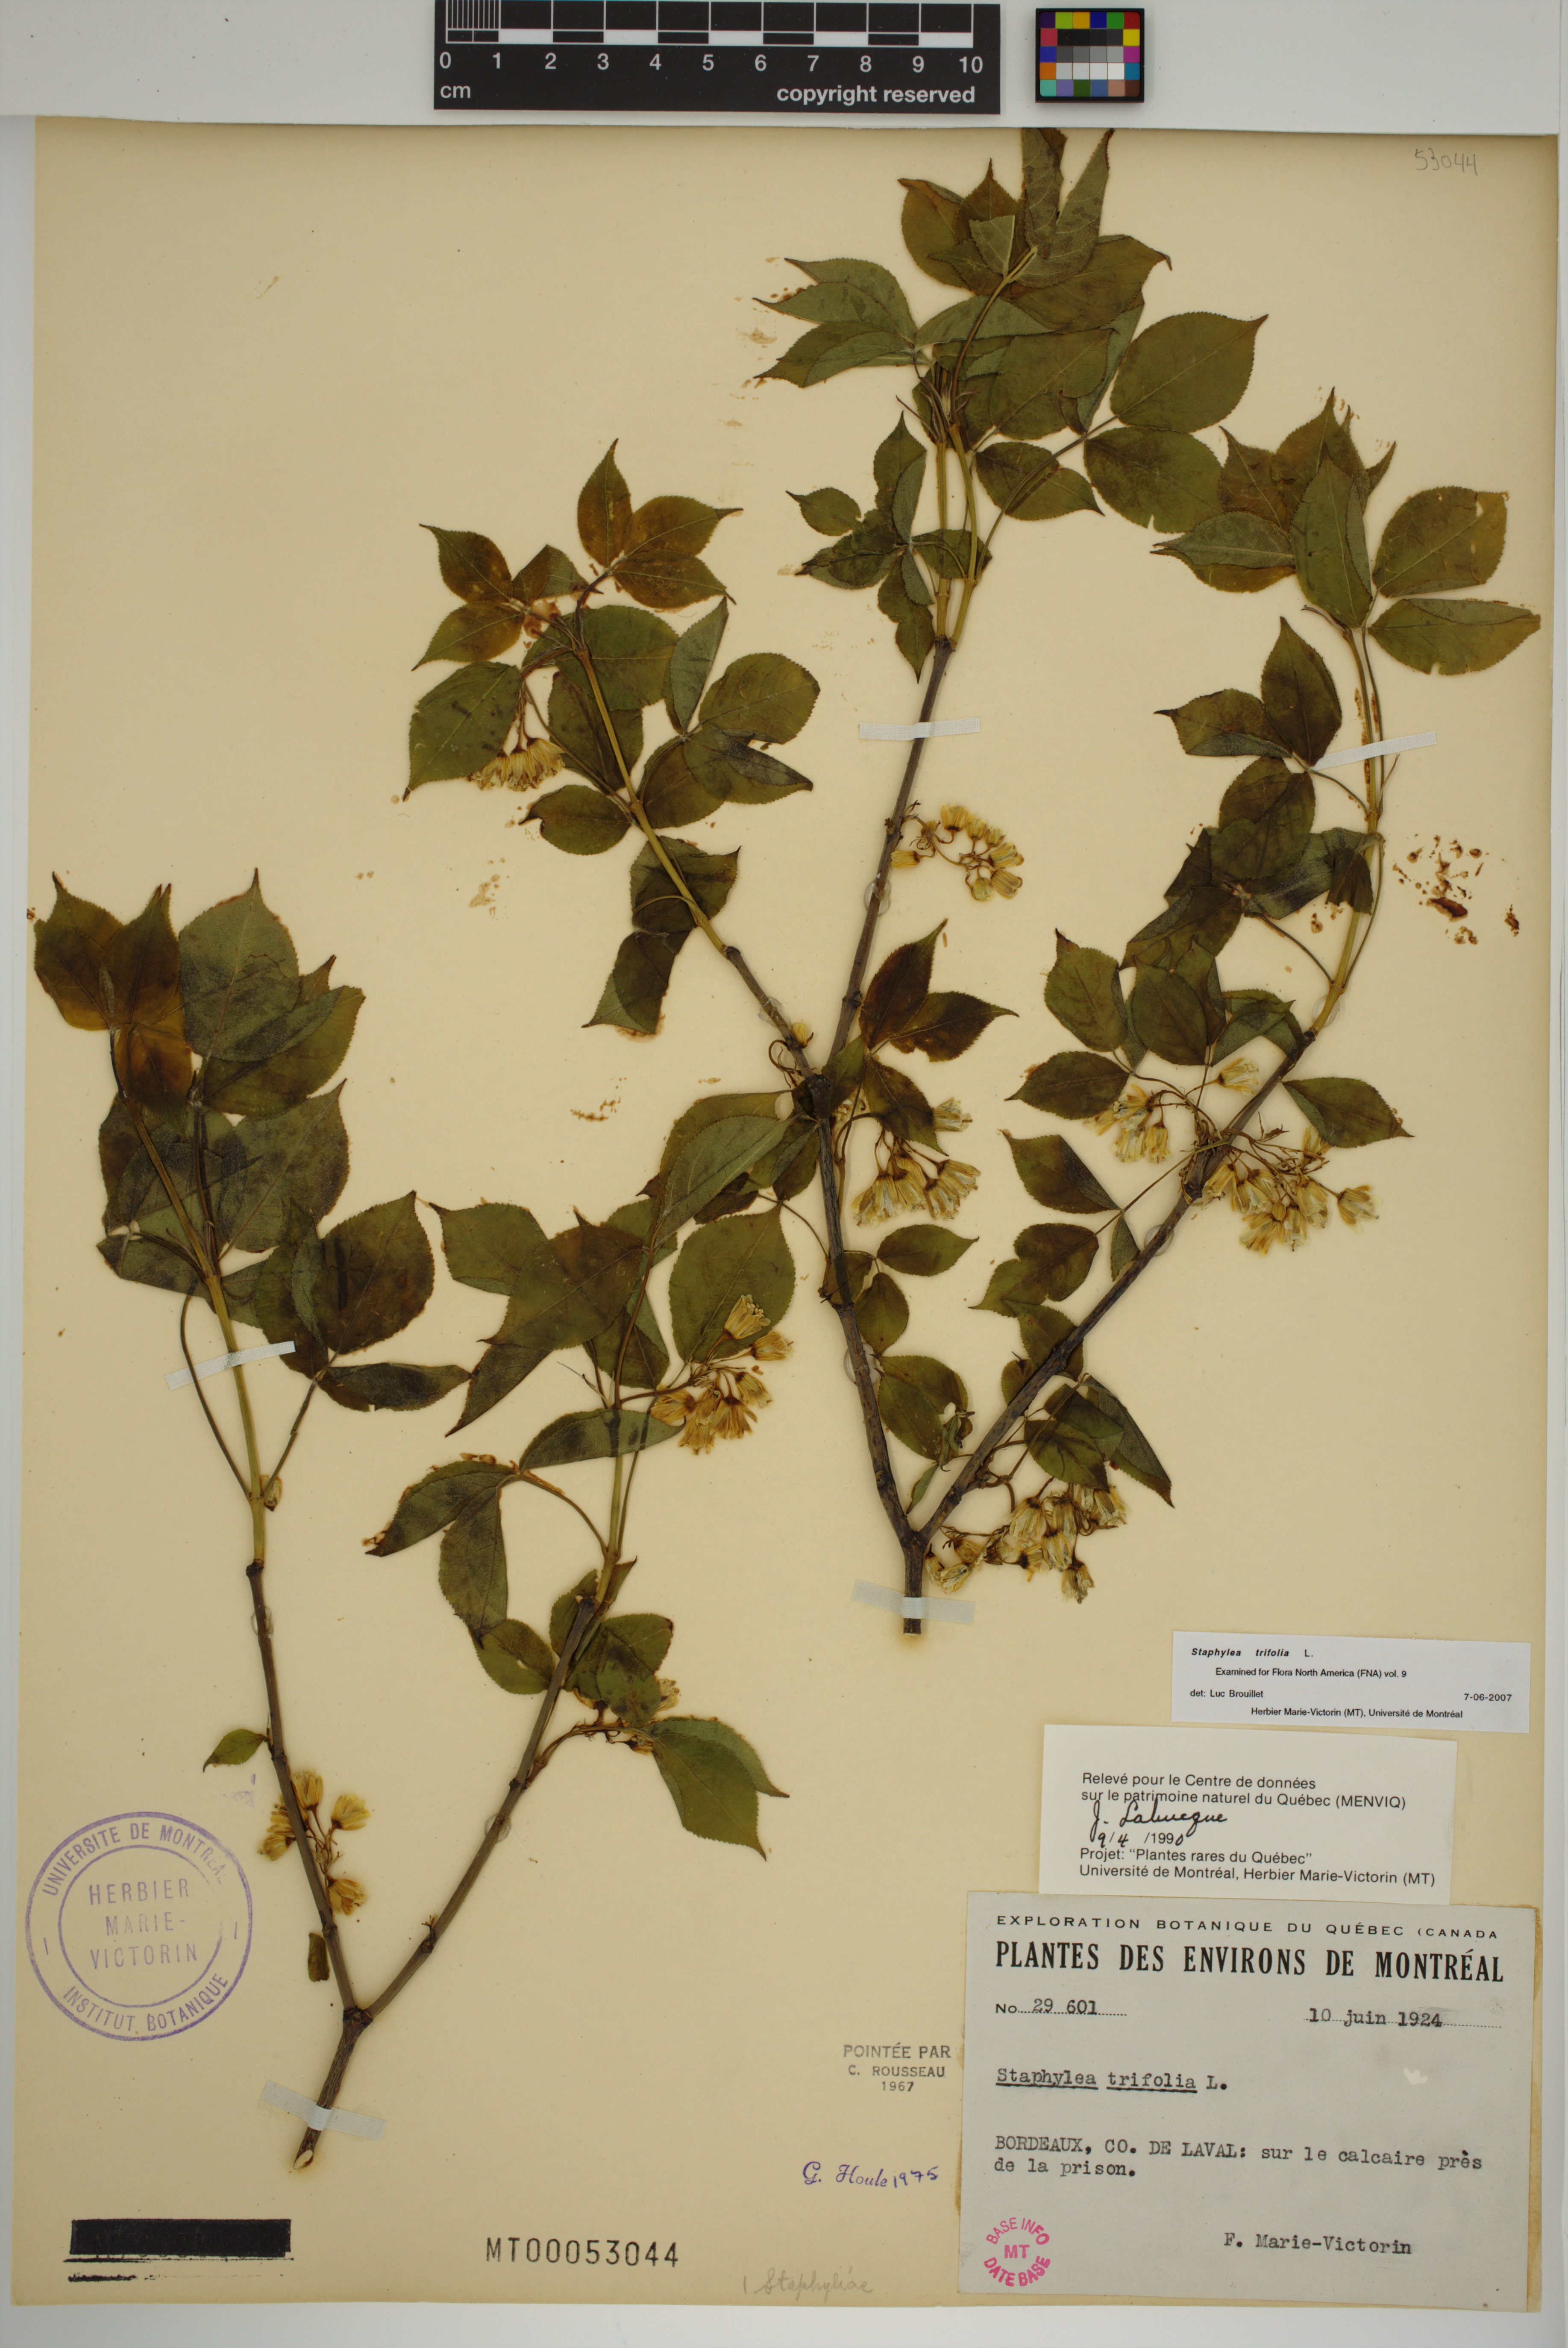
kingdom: Plantae
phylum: Tracheophyta
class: Magnoliopsida
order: Crossosomatales
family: Staphyleaceae
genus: Staphylea
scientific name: Staphylea trifolia
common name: American bladdernut
